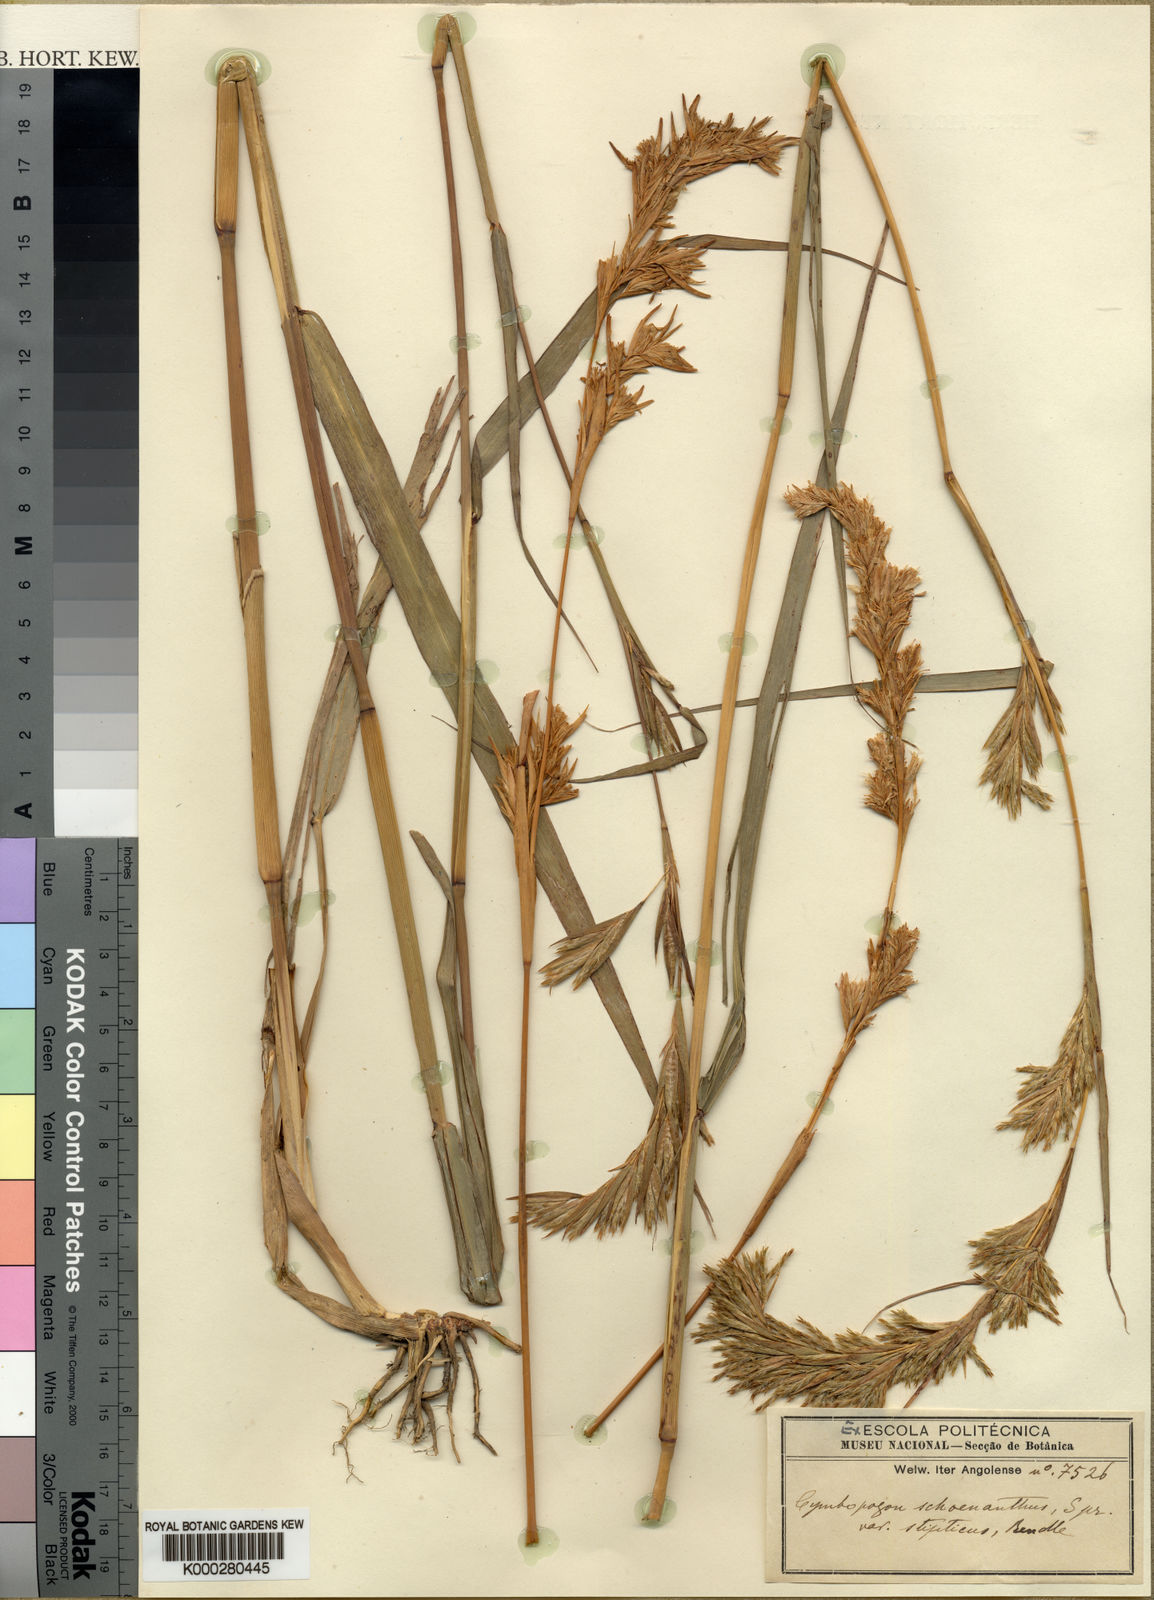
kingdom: Plantae
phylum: Tracheophyta
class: Liliopsida
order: Poales
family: Poaceae
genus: Cymbopogon
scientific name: Cymbopogon densiflorus
